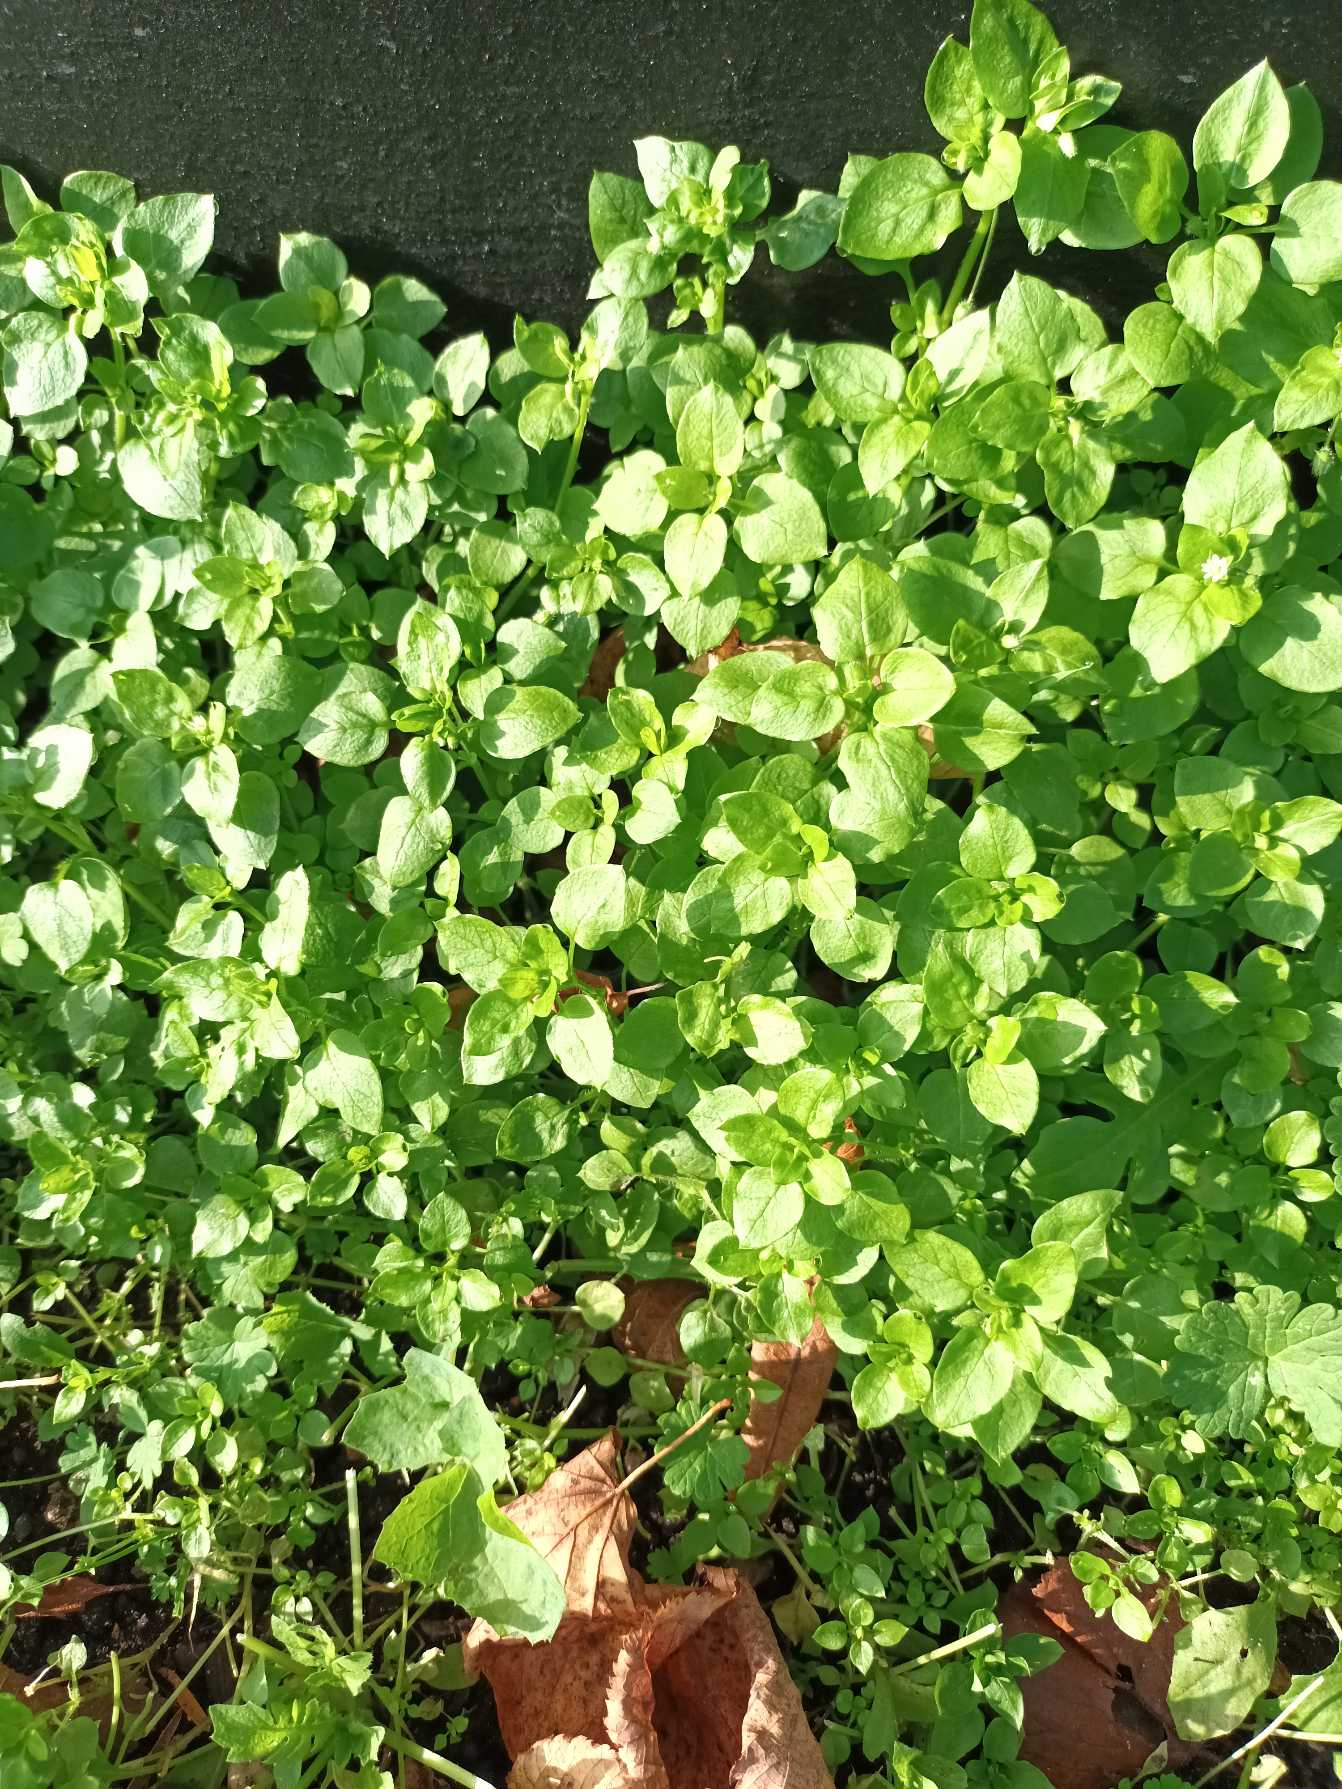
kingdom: Plantae
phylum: Tracheophyta
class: Magnoliopsida
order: Caryophyllales
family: Caryophyllaceae
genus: Stellaria
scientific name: Stellaria media
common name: Almindelig fuglegræs
